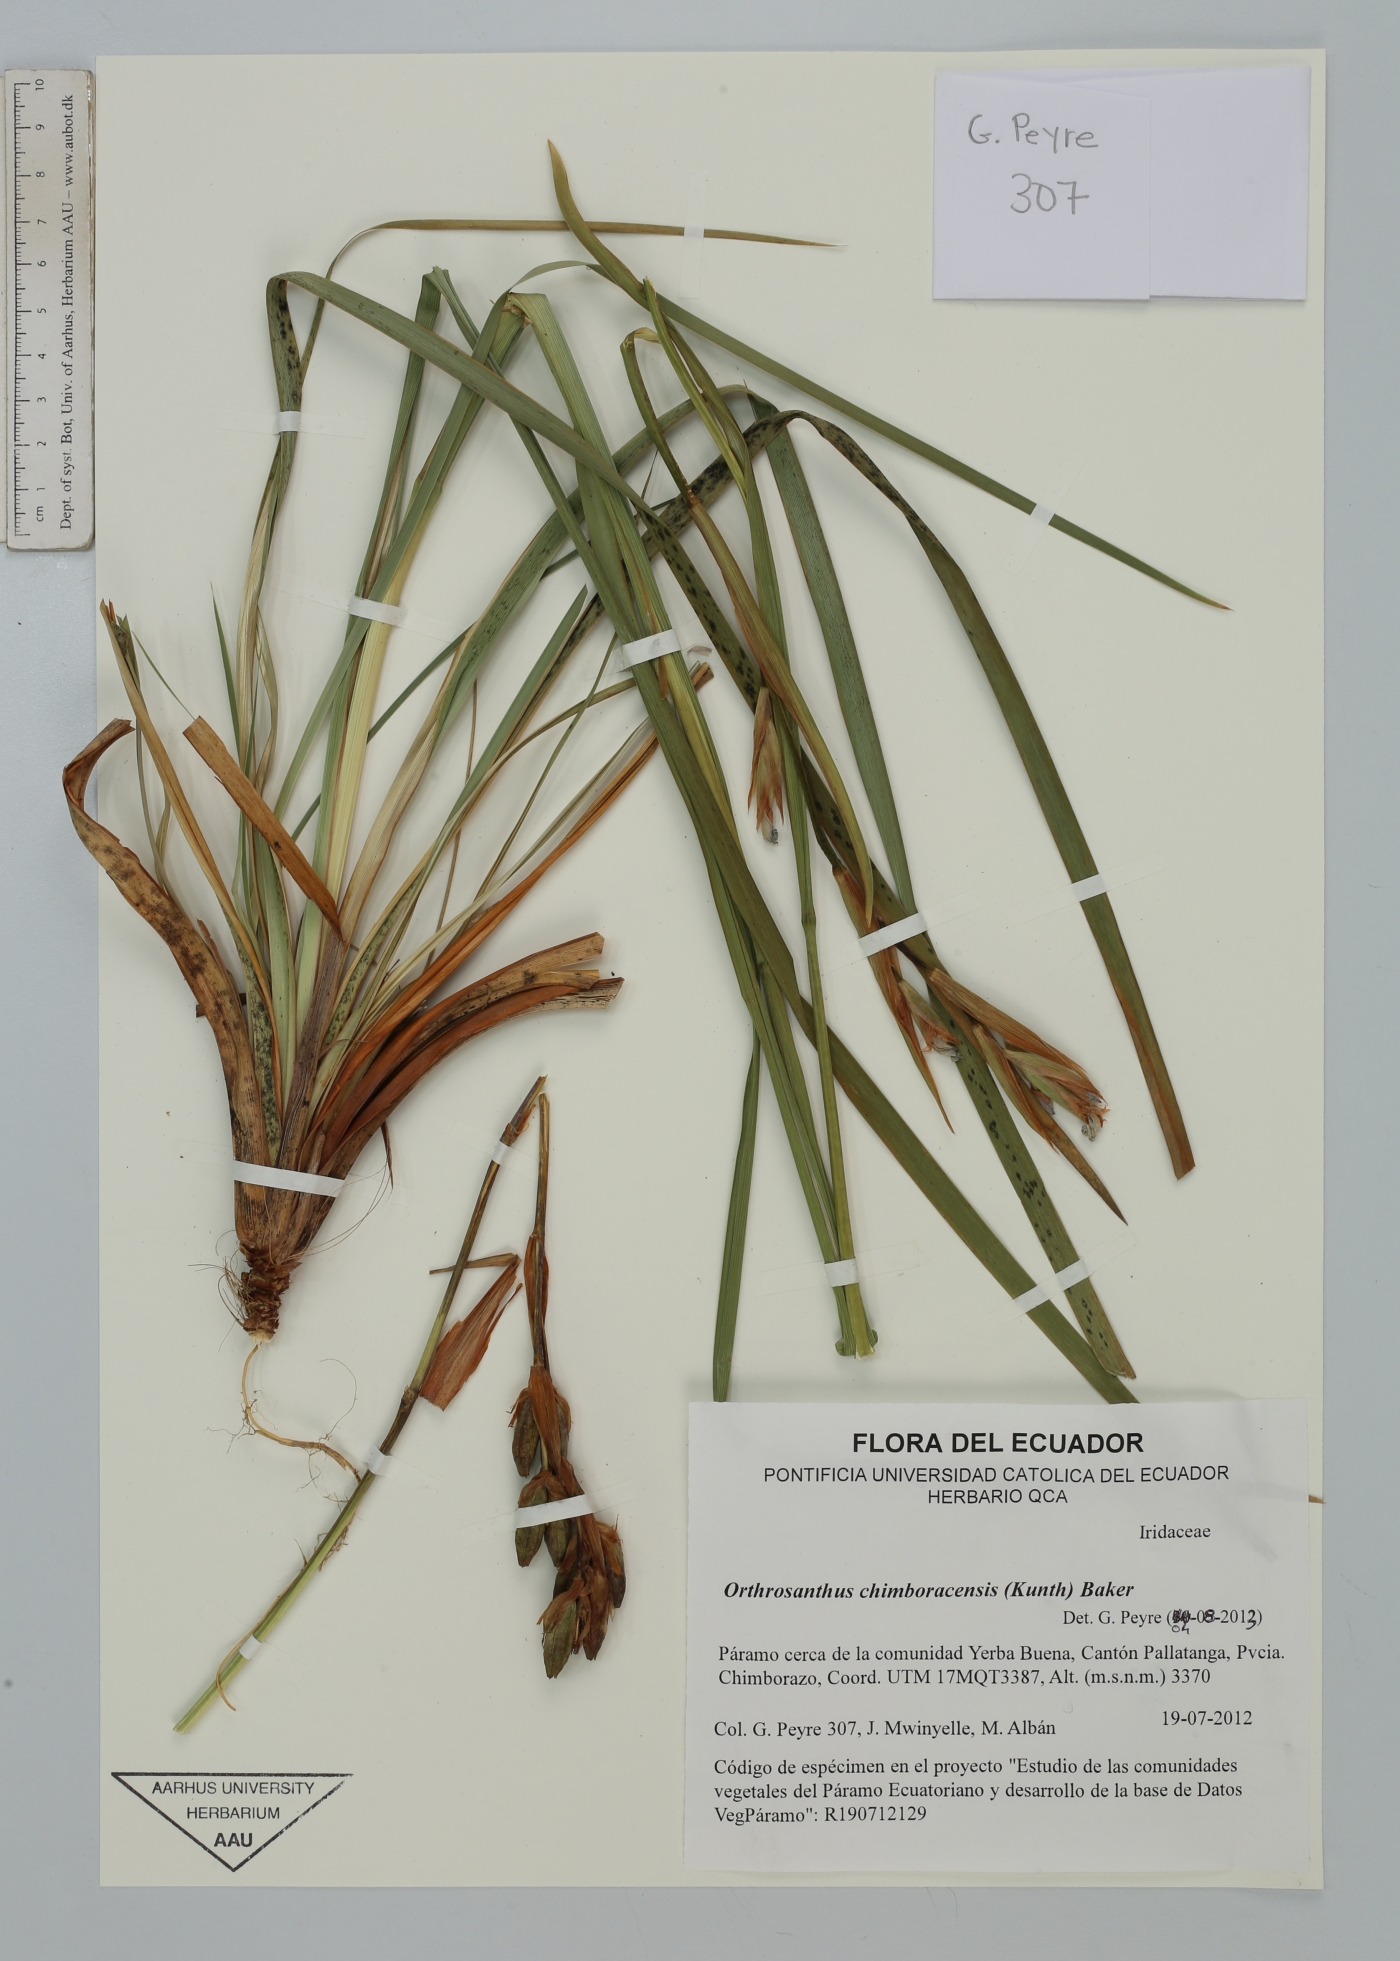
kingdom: Plantae
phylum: Tracheophyta
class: Liliopsida
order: Asparagales
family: Iridaceae
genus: Orthrosanthus
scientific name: Orthrosanthus chimboracensis
